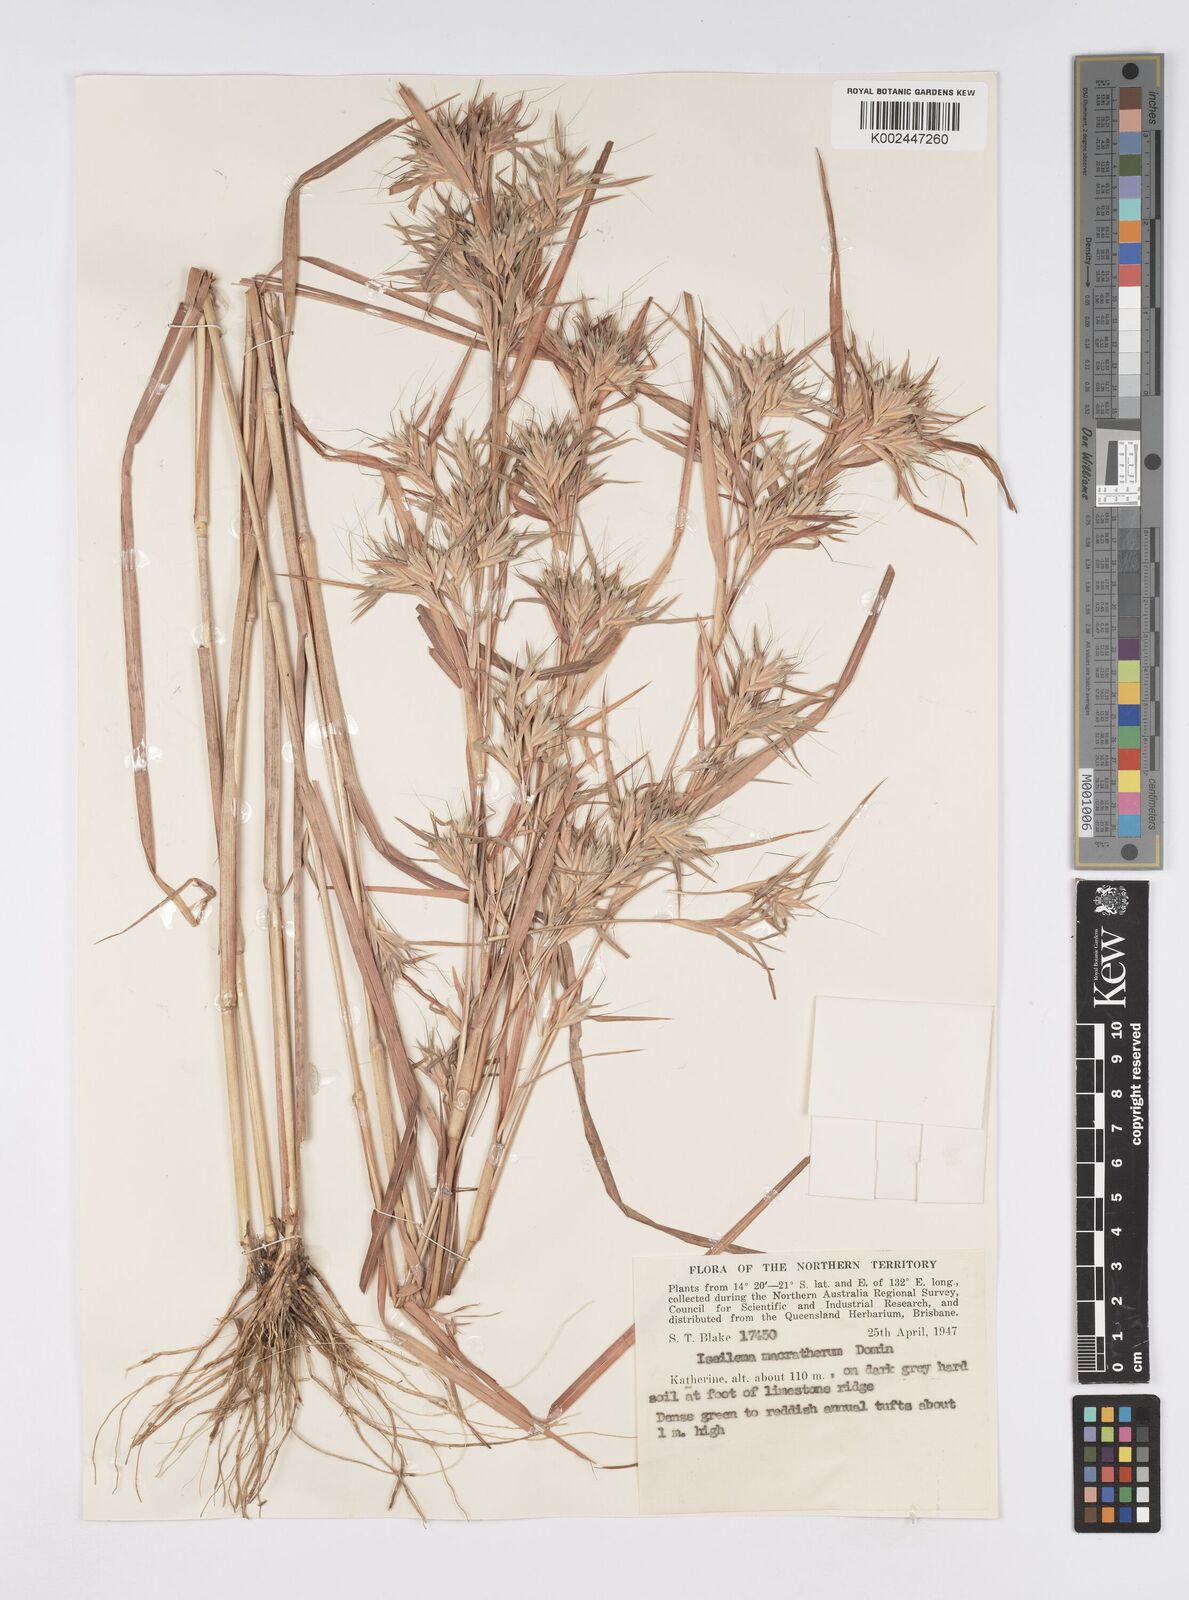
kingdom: Plantae
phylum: Tracheophyta
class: Liliopsida
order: Poales
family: Poaceae
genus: Iseilema
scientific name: Iseilema macratherum
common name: Bull flinders grass
